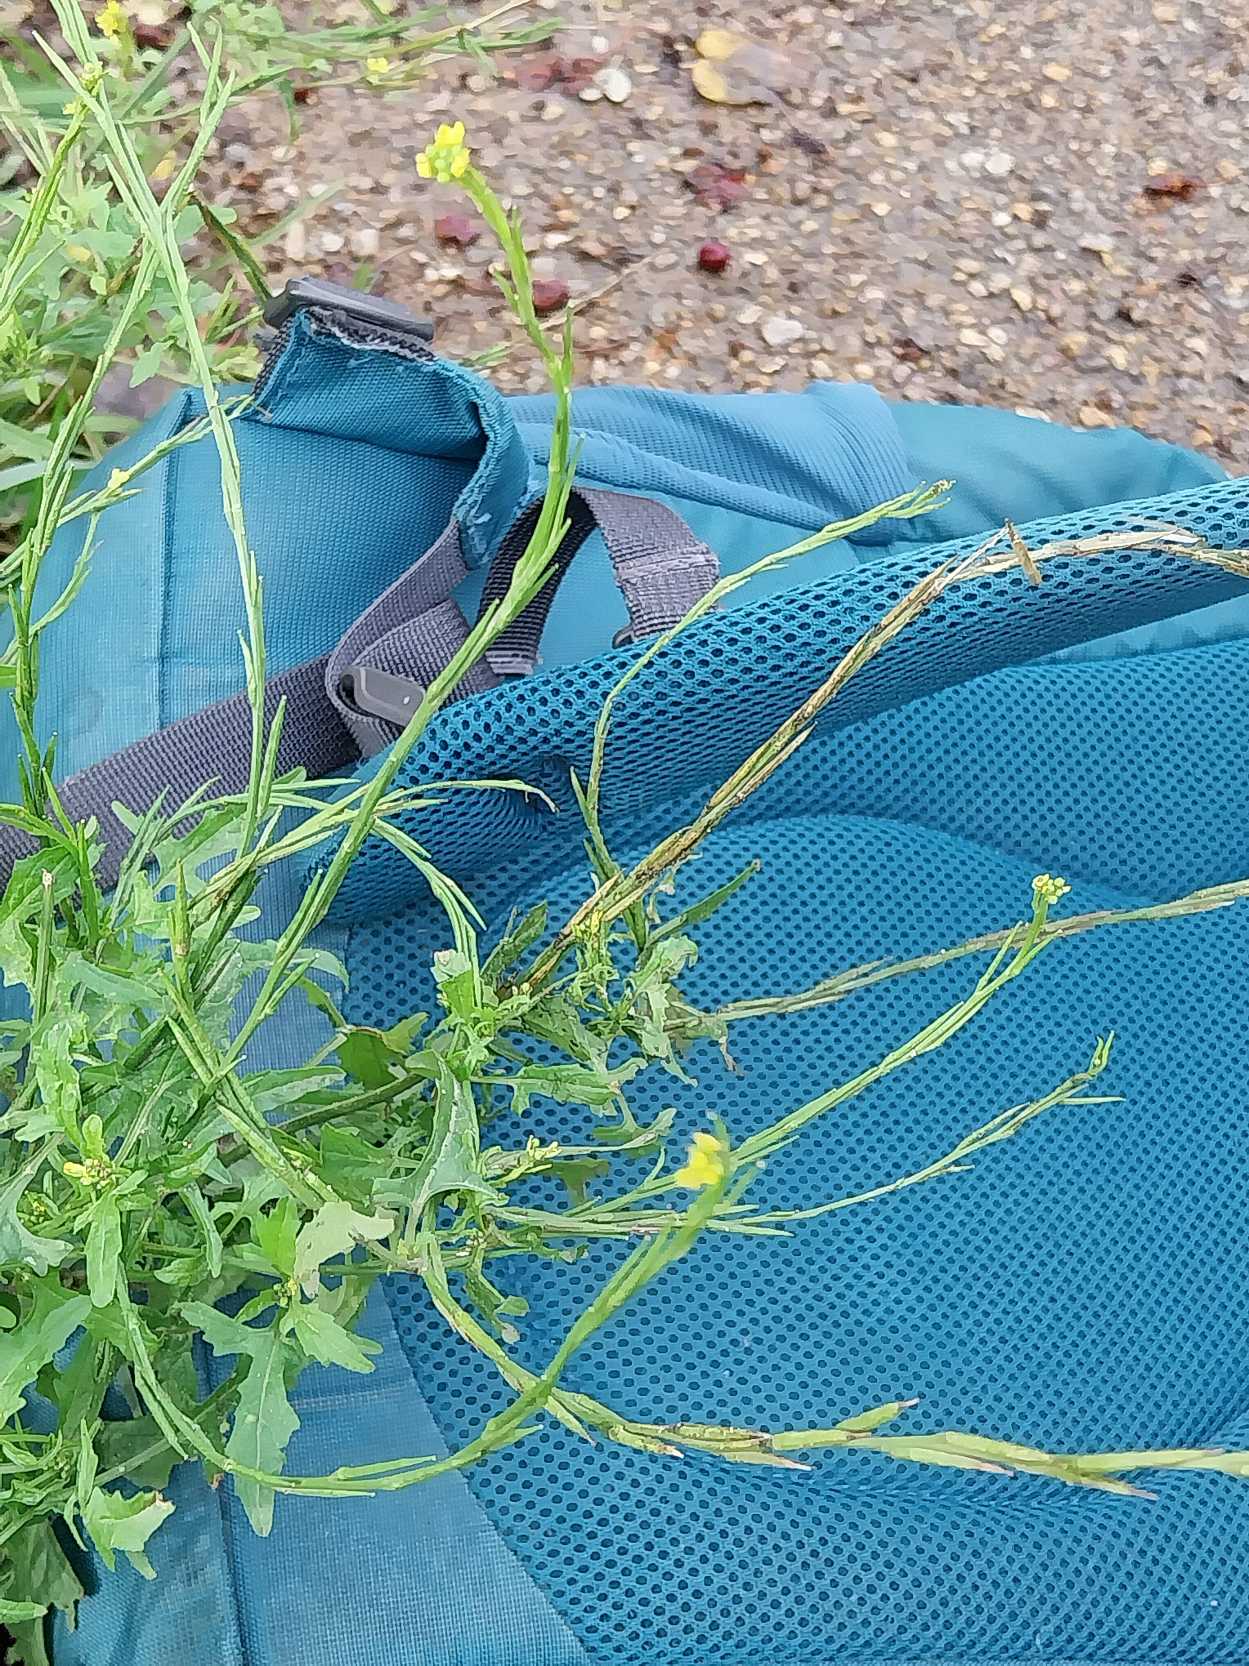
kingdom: Plantae
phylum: Tracheophyta
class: Magnoliopsida
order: Brassicales
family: Brassicaceae
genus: Sisymbrium
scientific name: Sisymbrium officinale
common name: Rank vejsennep
